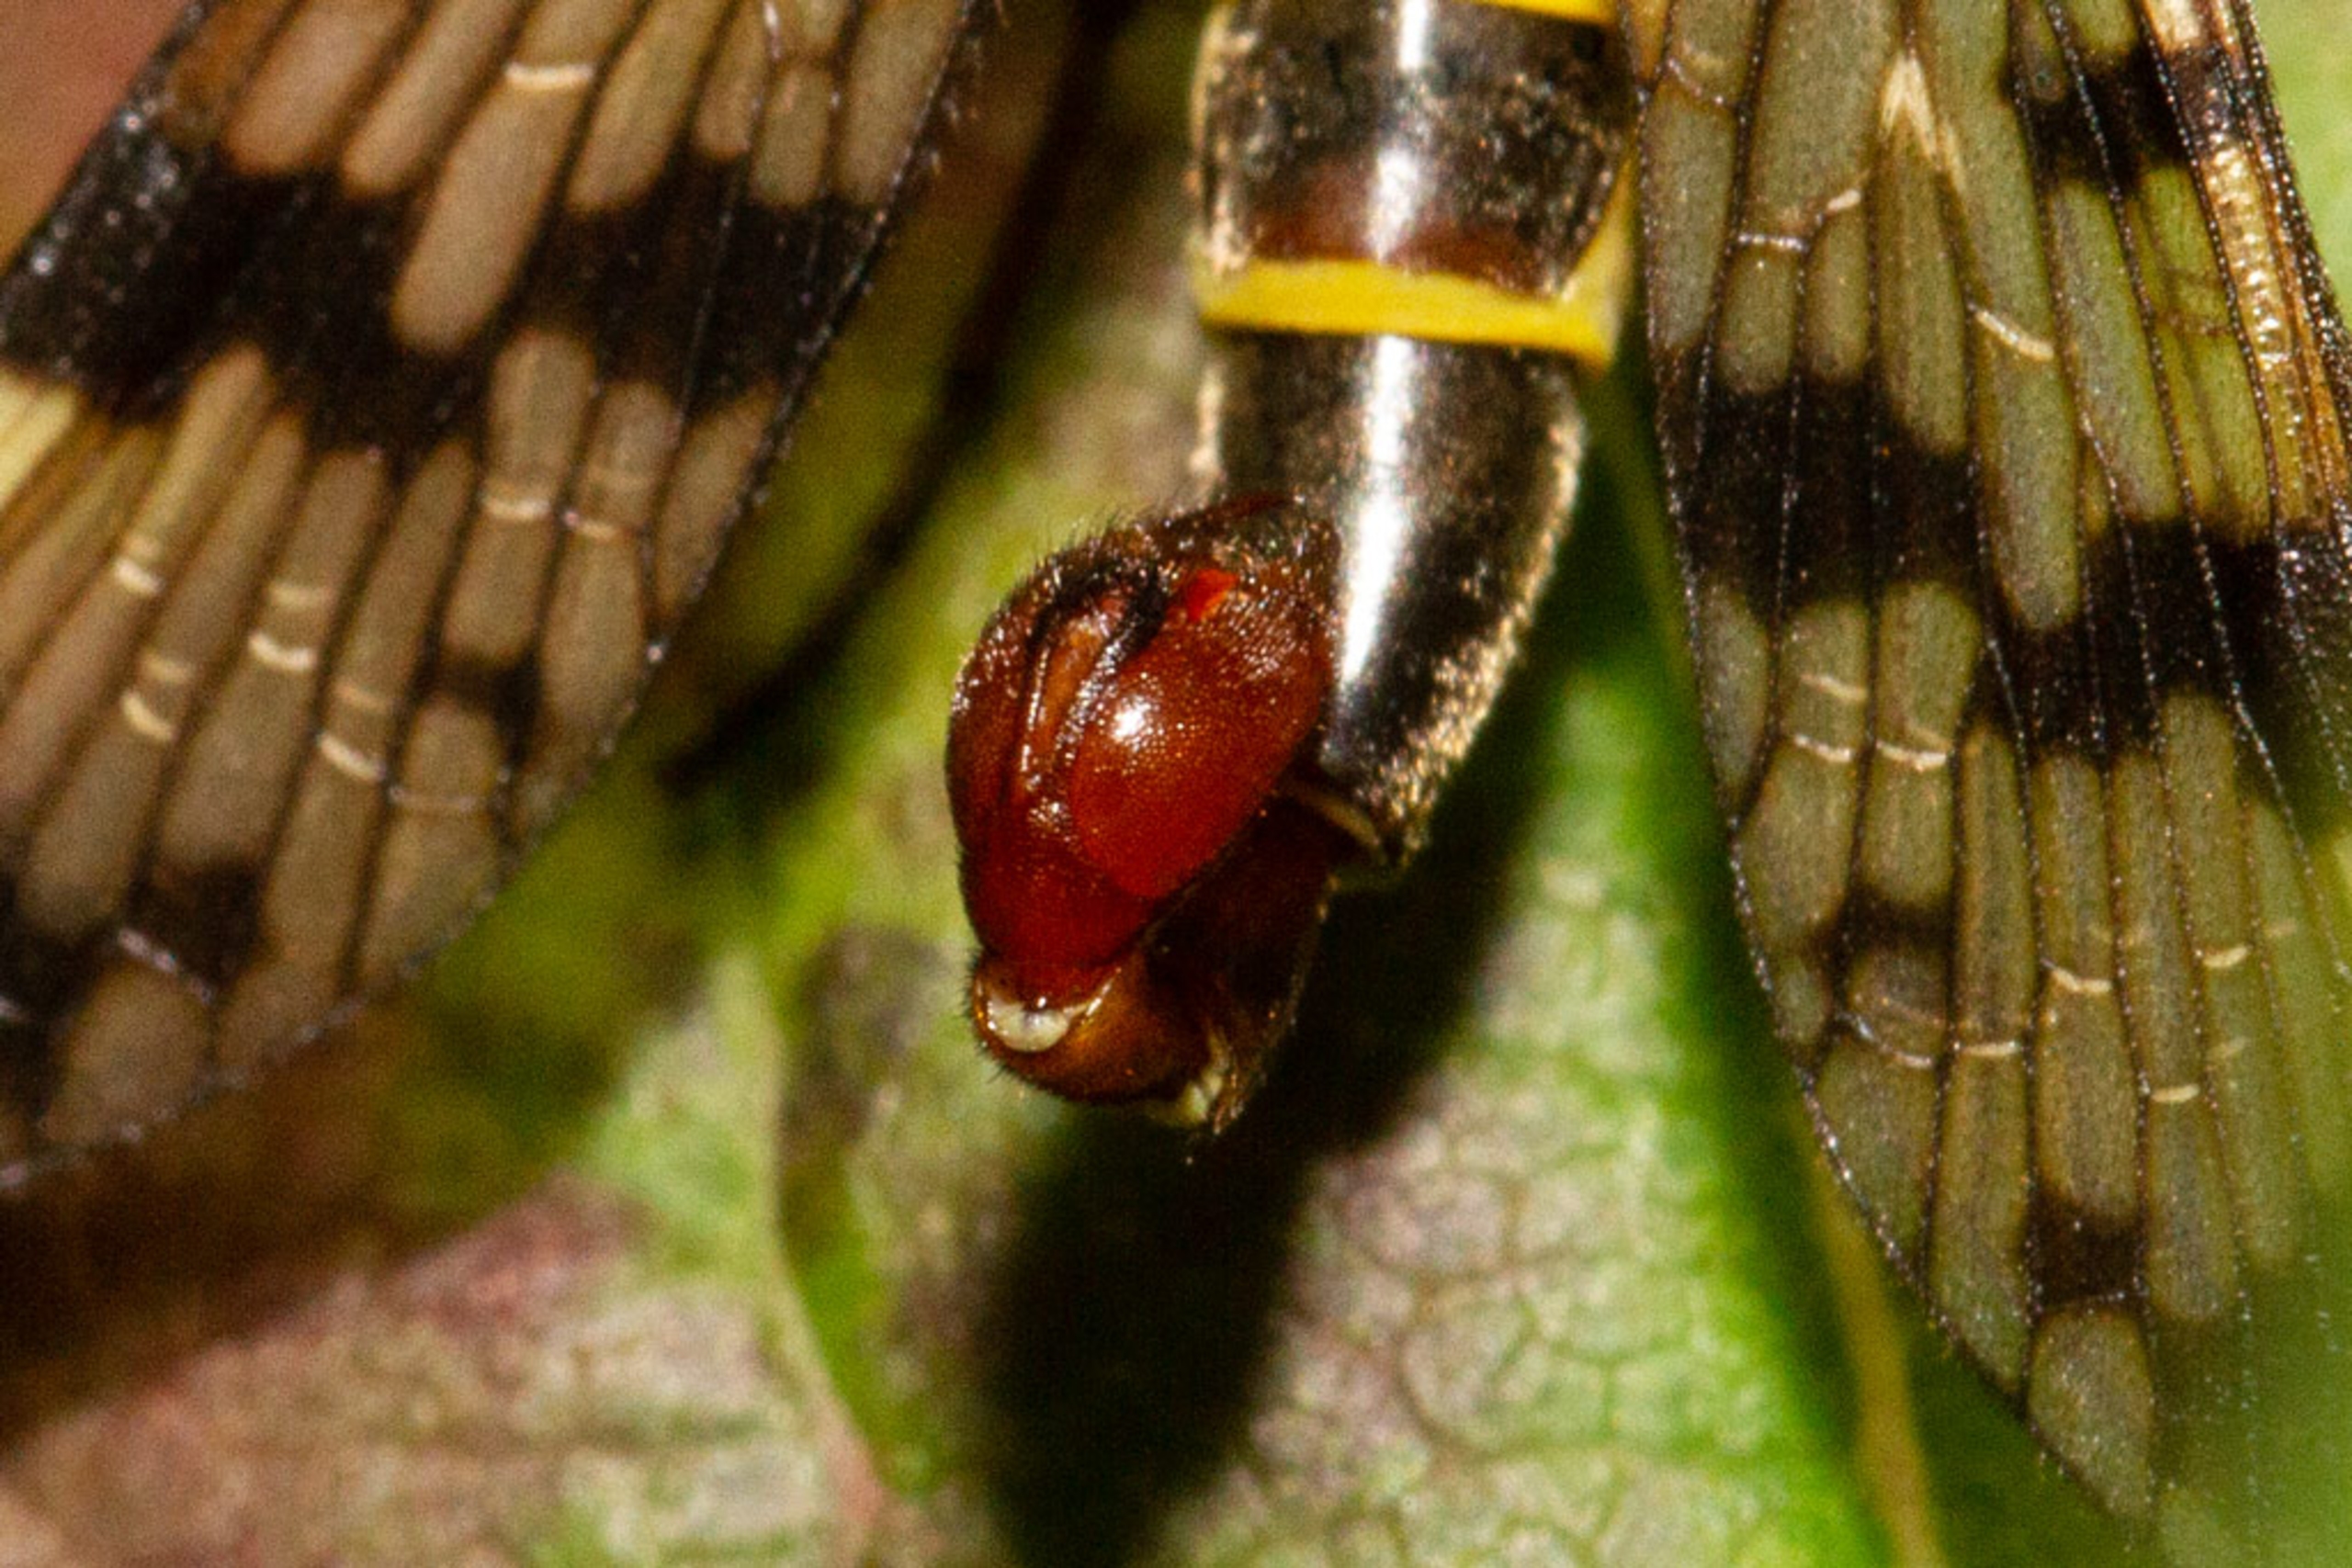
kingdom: Animalia
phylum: Arthropoda
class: Insecta
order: Mecoptera
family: Panorpidae
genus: Panorpa
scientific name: Panorpa communis
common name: Almindelig skorpionflue
